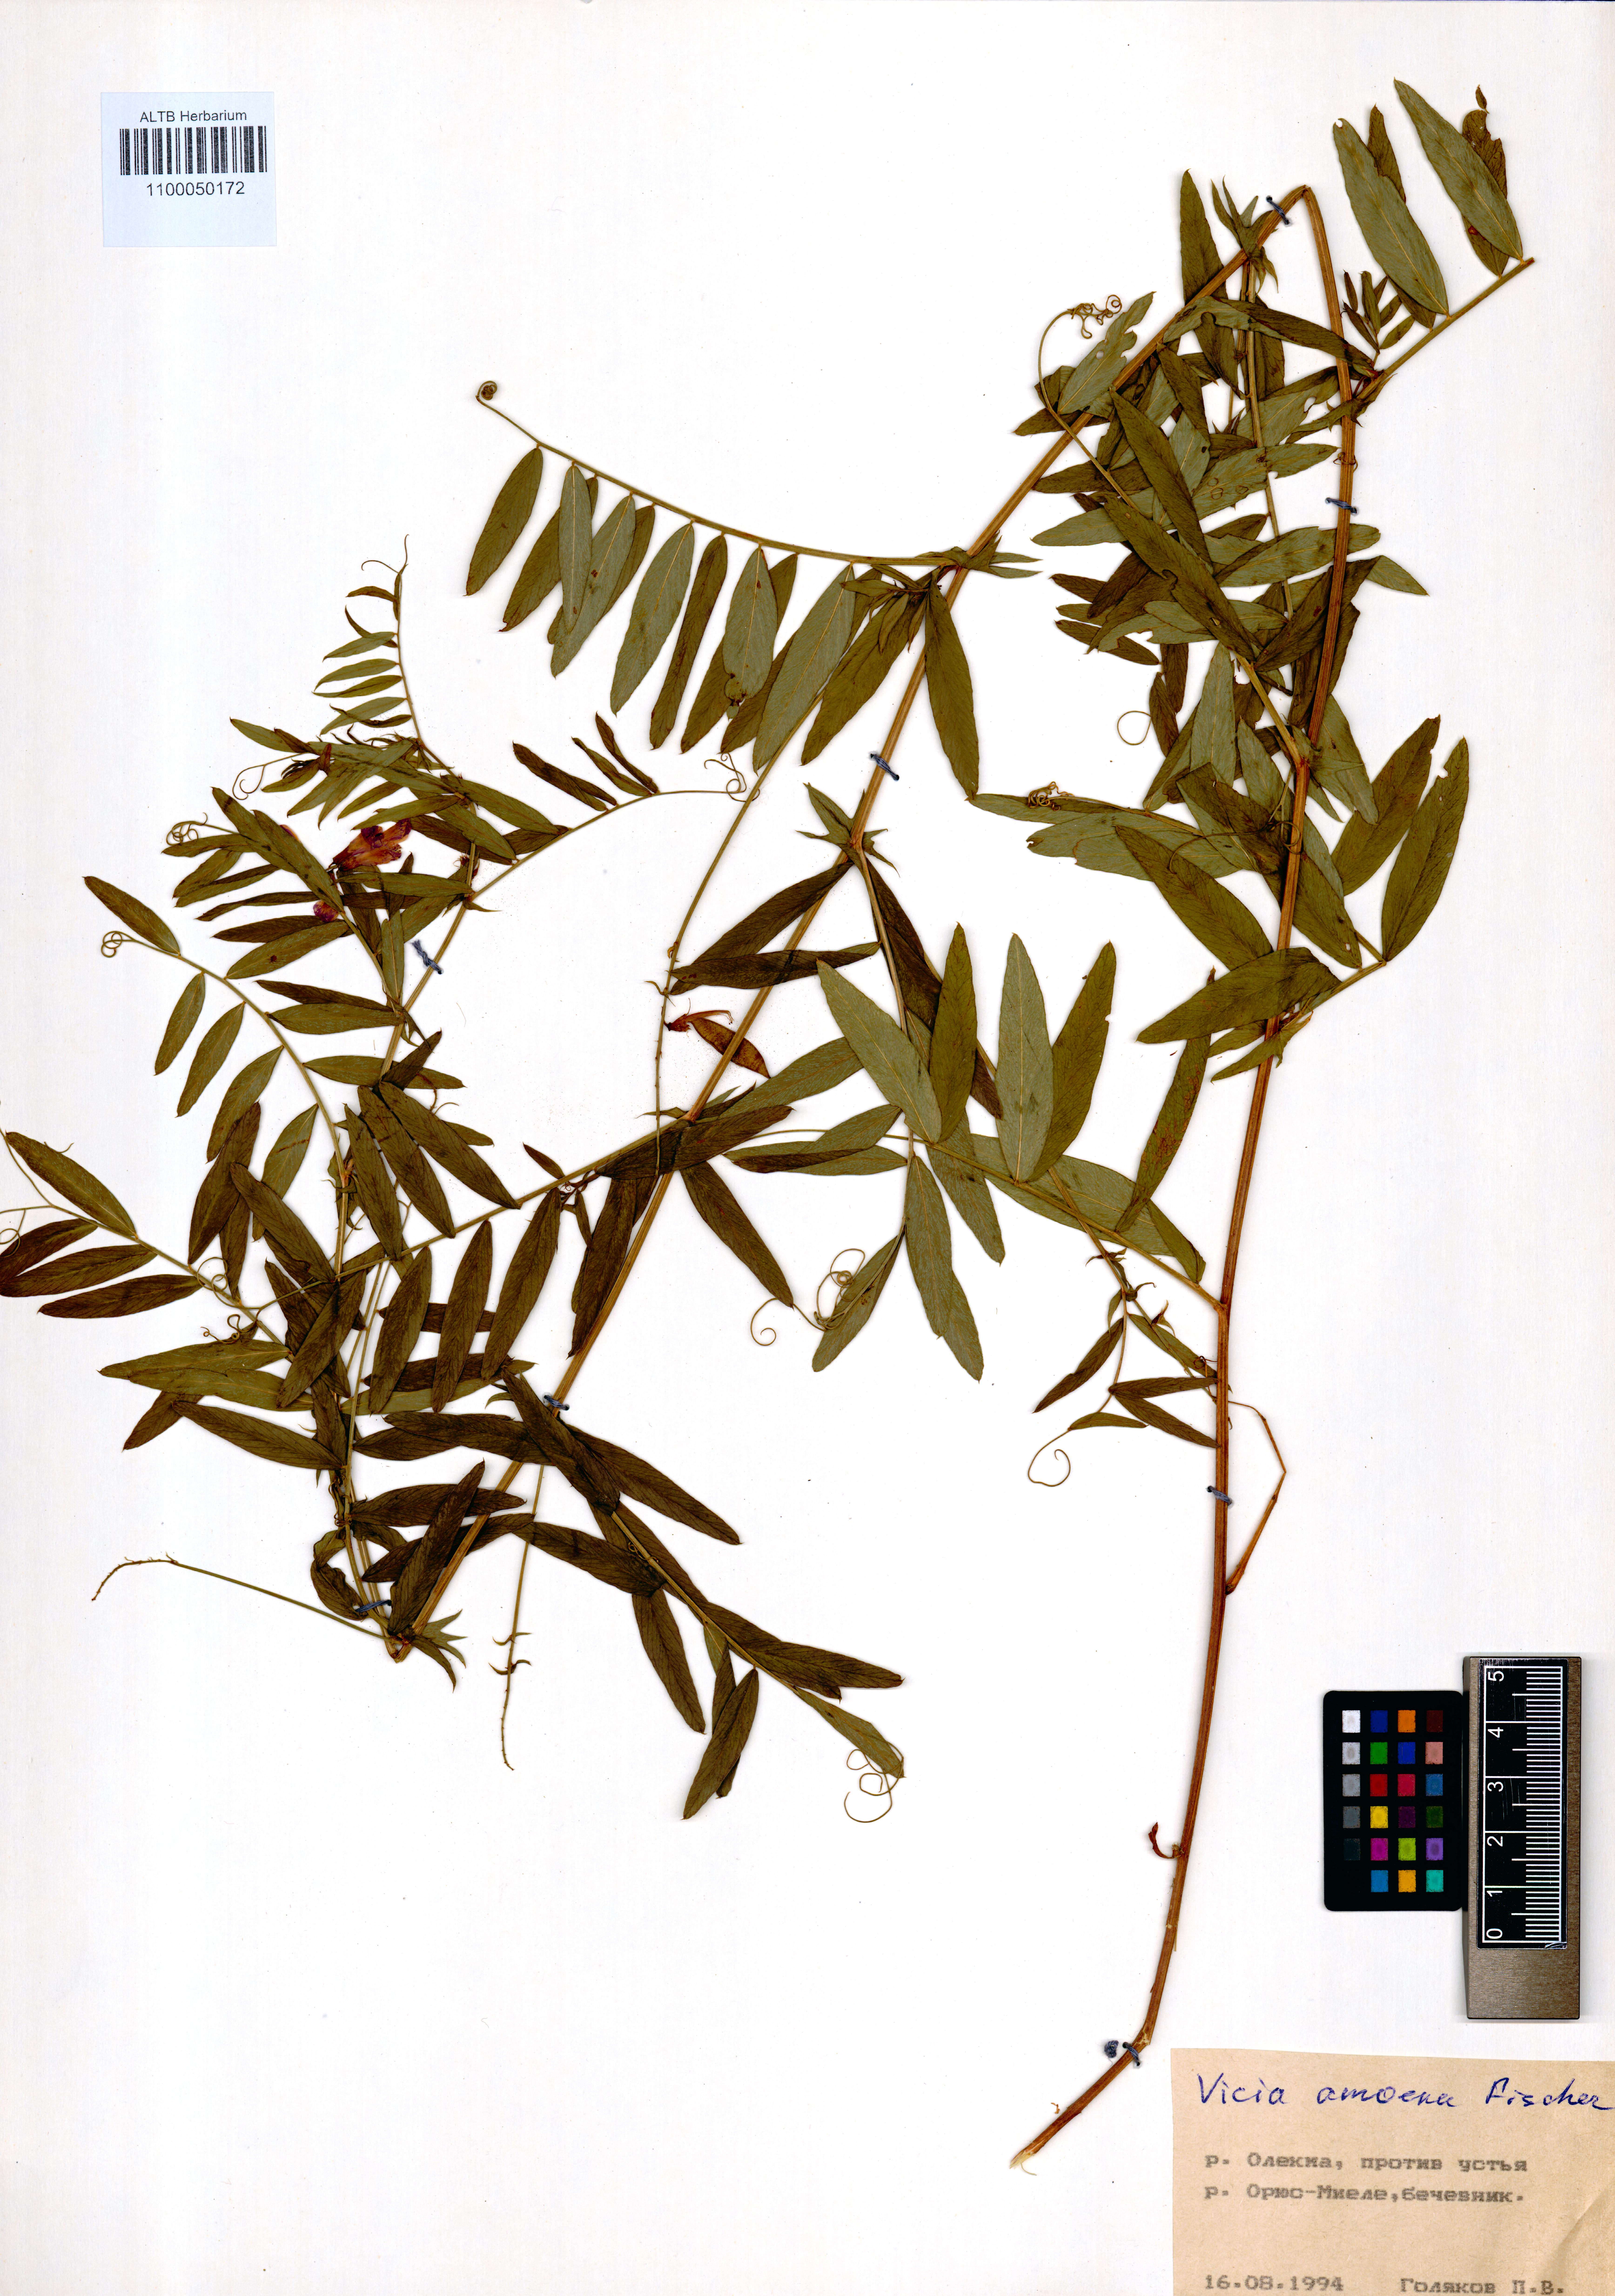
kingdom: Plantae
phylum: Tracheophyta
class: Magnoliopsida
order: Fabales
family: Fabaceae
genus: Vicia
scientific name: Vicia amoena
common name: Cheder ebs
